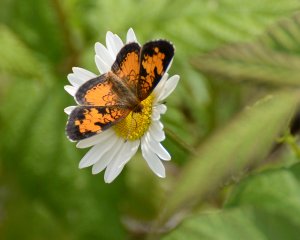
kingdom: Animalia
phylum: Arthropoda
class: Insecta
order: Lepidoptera
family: Nymphalidae
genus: Phyciodes
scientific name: Phyciodes tharos
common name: Northern Crescent
